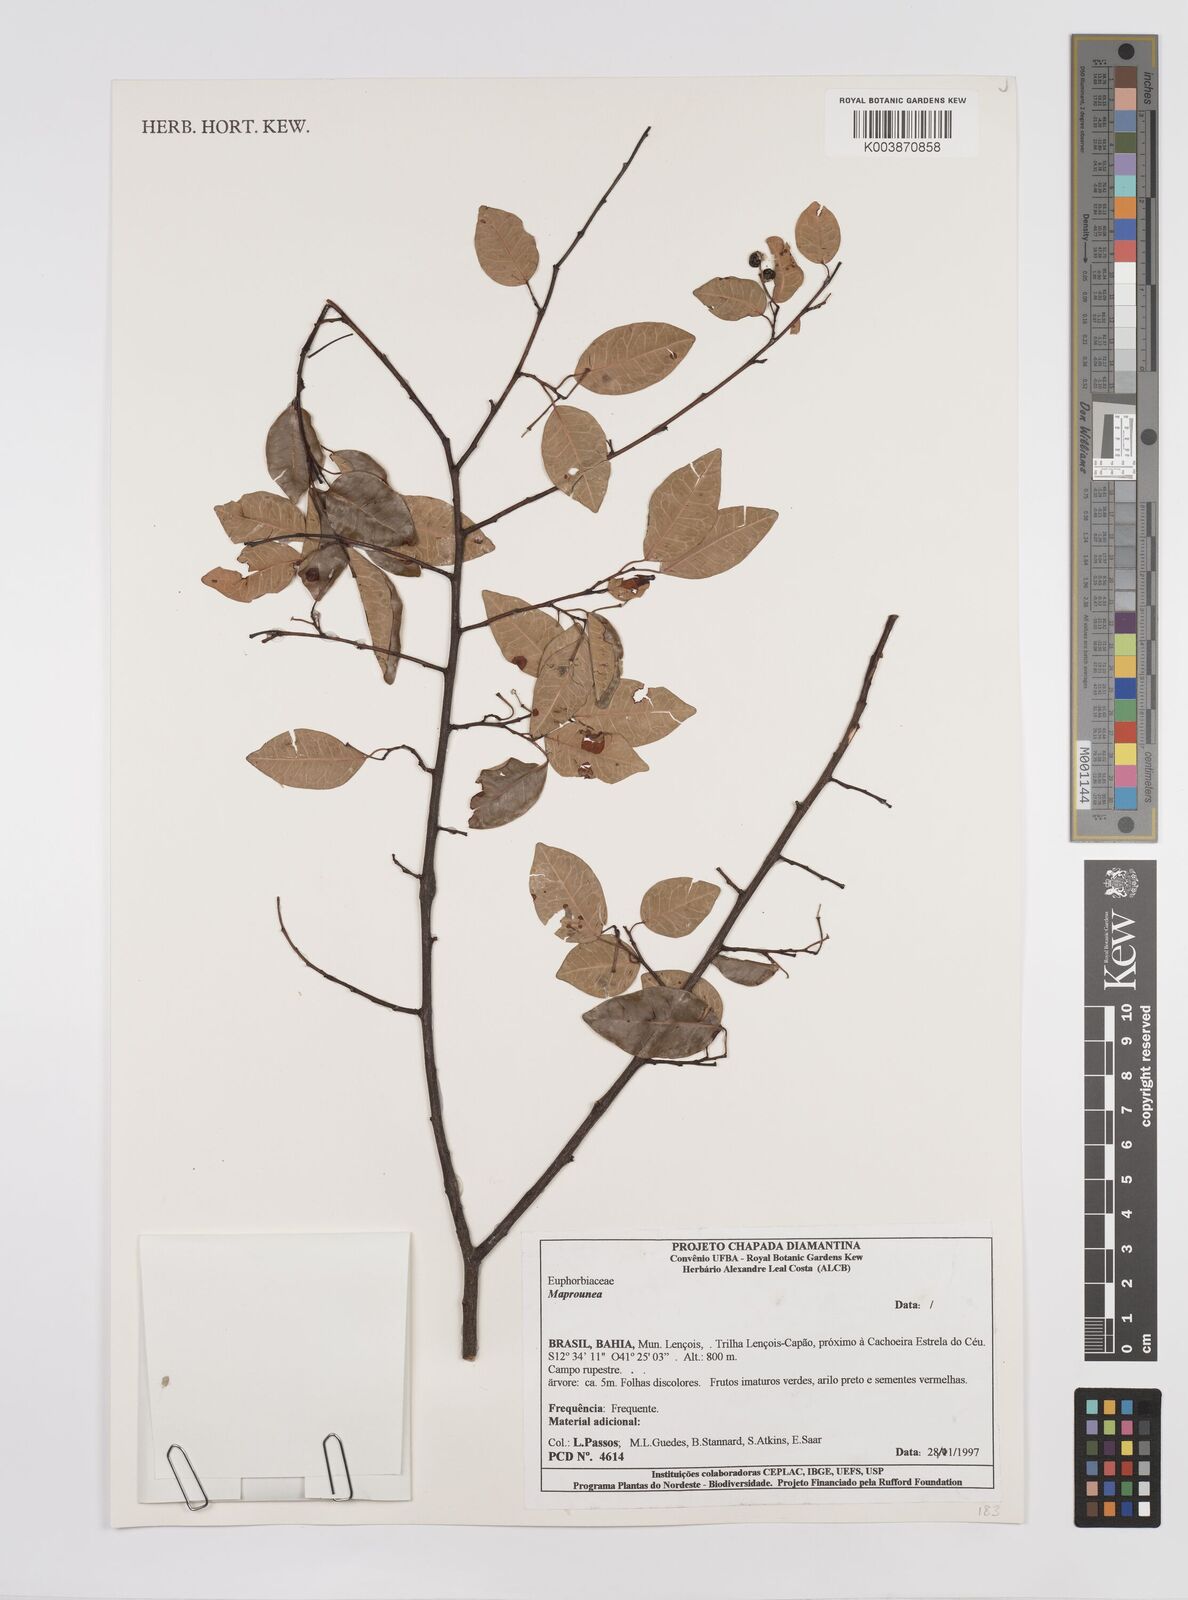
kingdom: Plantae
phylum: Tracheophyta
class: Magnoliopsida
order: Malpighiales
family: Euphorbiaceae
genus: Maprounea
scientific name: Maprounea
